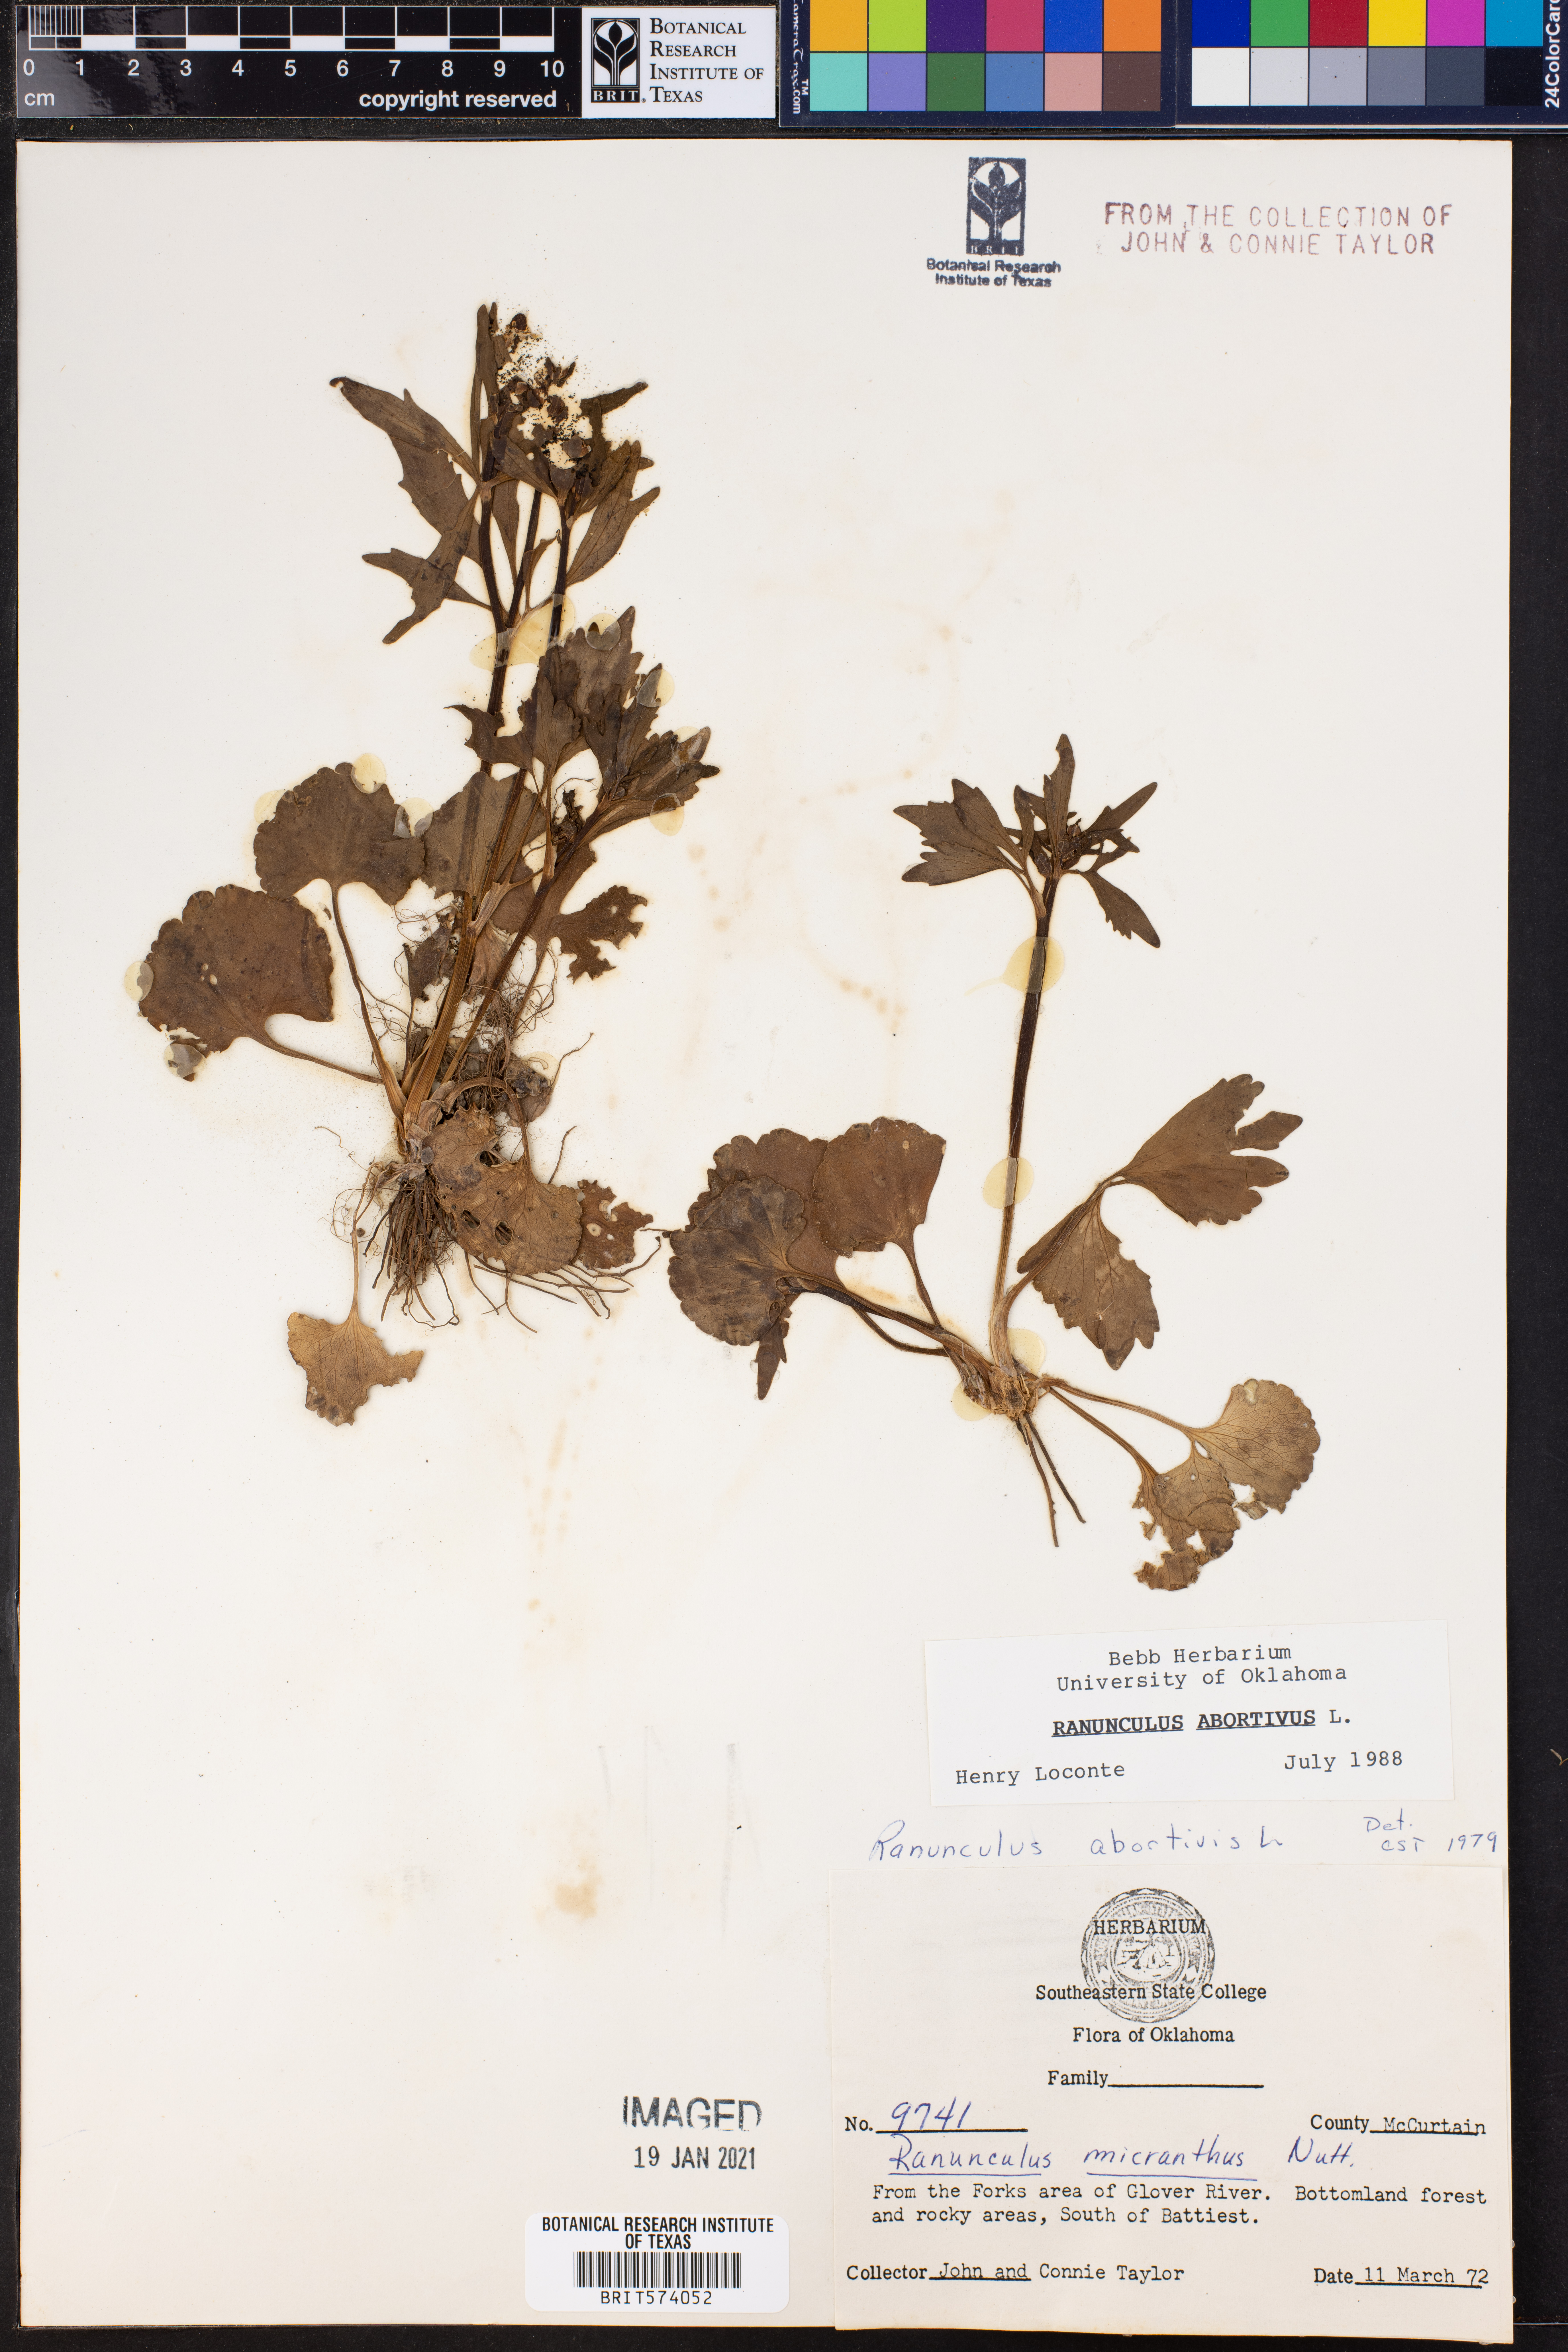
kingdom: Plantae
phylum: Tracheophyta
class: Magnoliopsida
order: Ranunculales
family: Ranunculaceae
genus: Ranunculus
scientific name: Ranunculus abortivus
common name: Early wood buttercup
